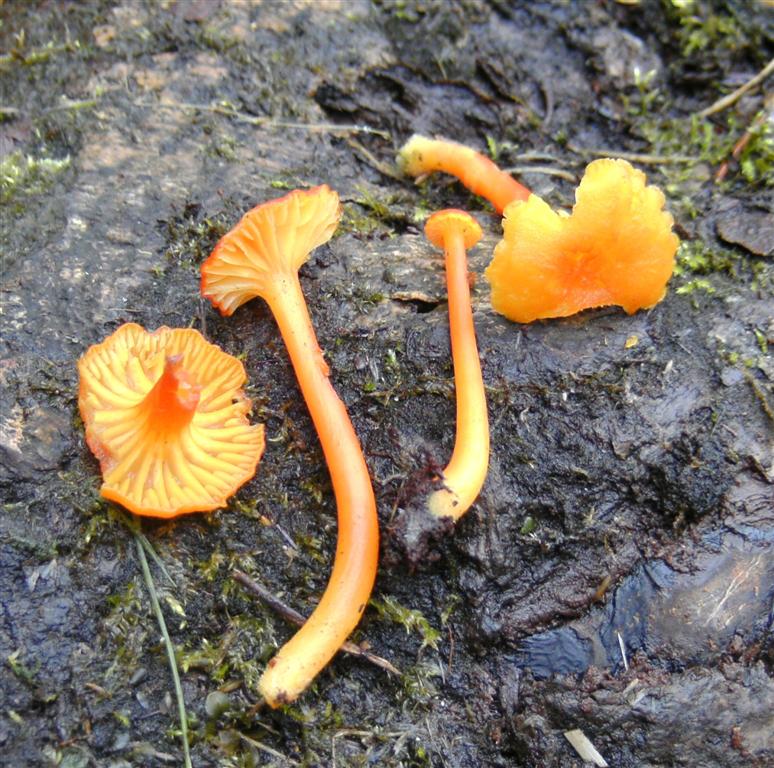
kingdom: Fungi
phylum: Basidiomycota
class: Agaricomycetes
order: Agaricales
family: Hygrophoraceae
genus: Hygrocybe
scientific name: Hygrocybe cantharellus
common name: kantarel-vokshat
